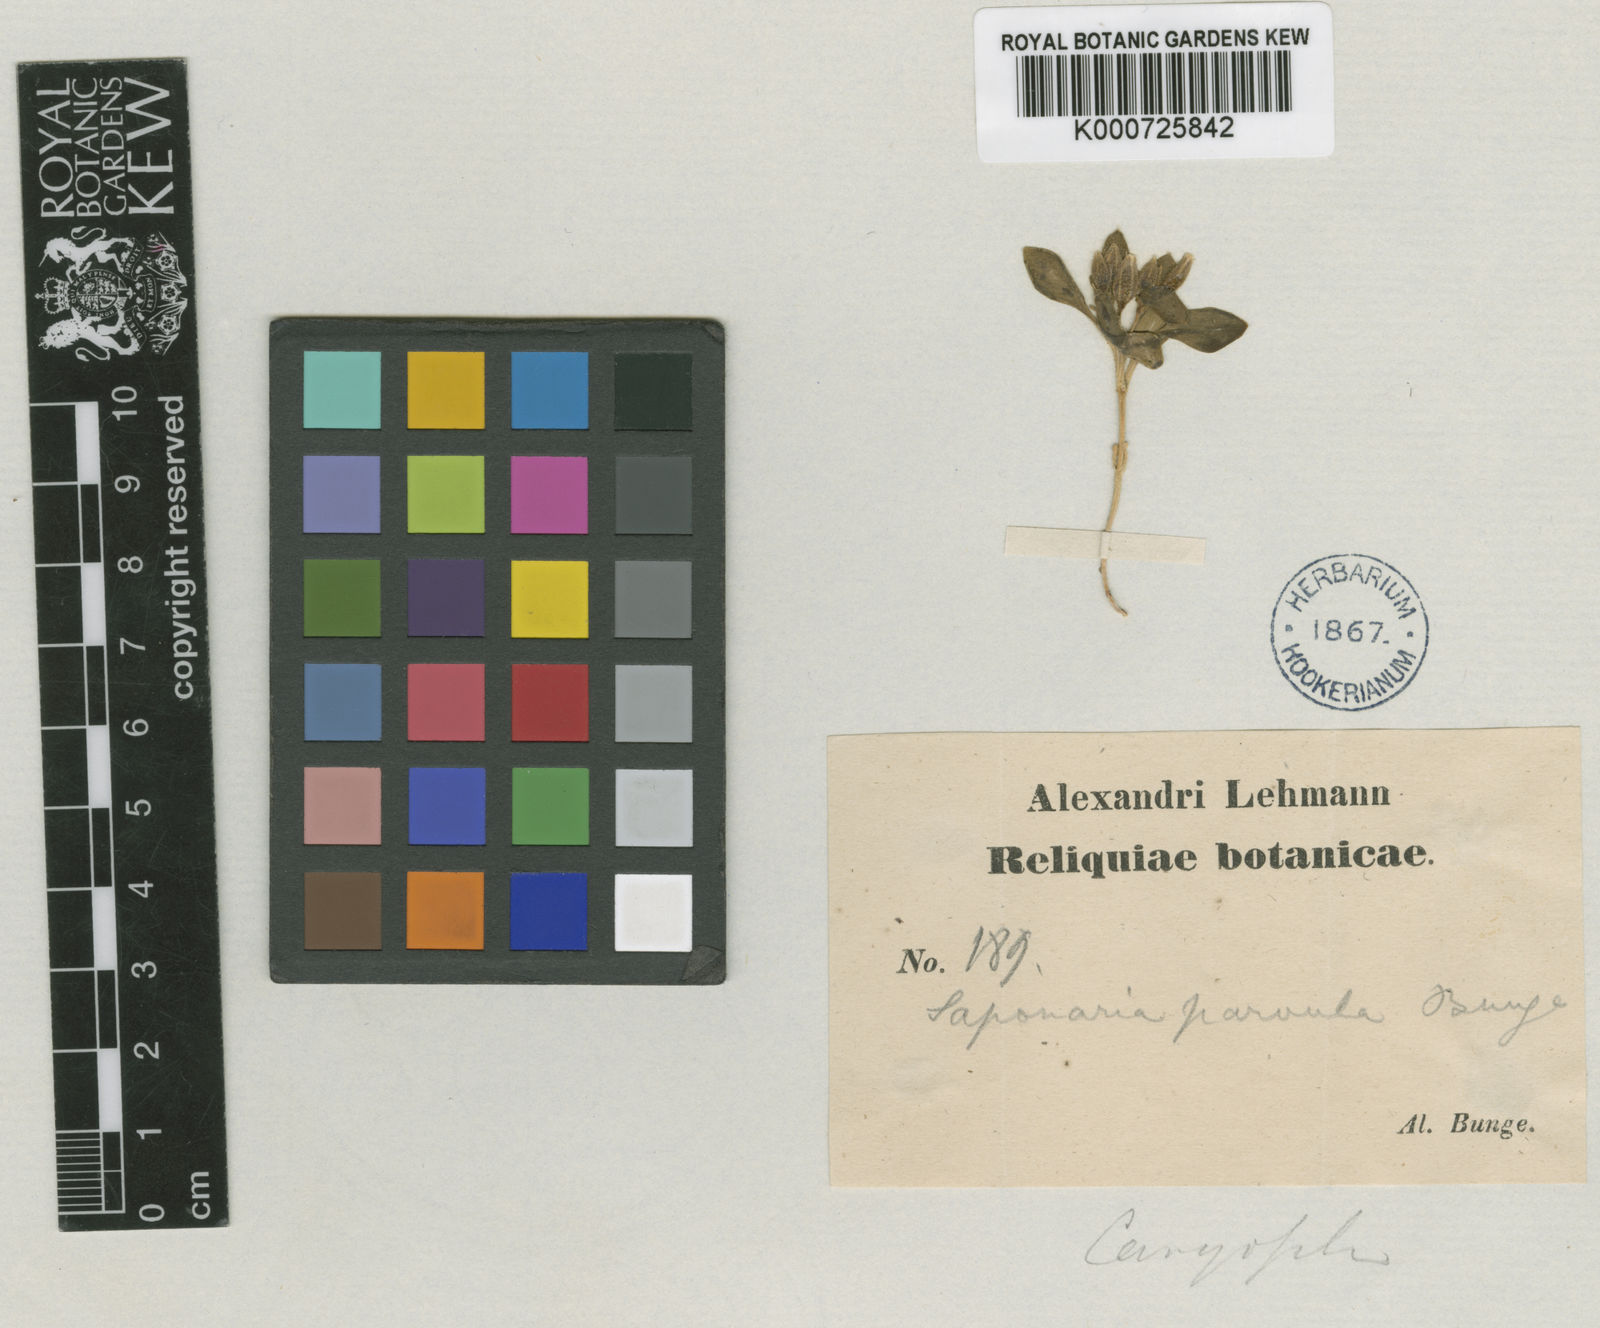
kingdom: Plantae
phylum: Tracheophyta
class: Magnoliopsida
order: Caryophyllales
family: Caryophyllaceae
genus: Gypsophila
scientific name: Gypsophila spathulifolia
